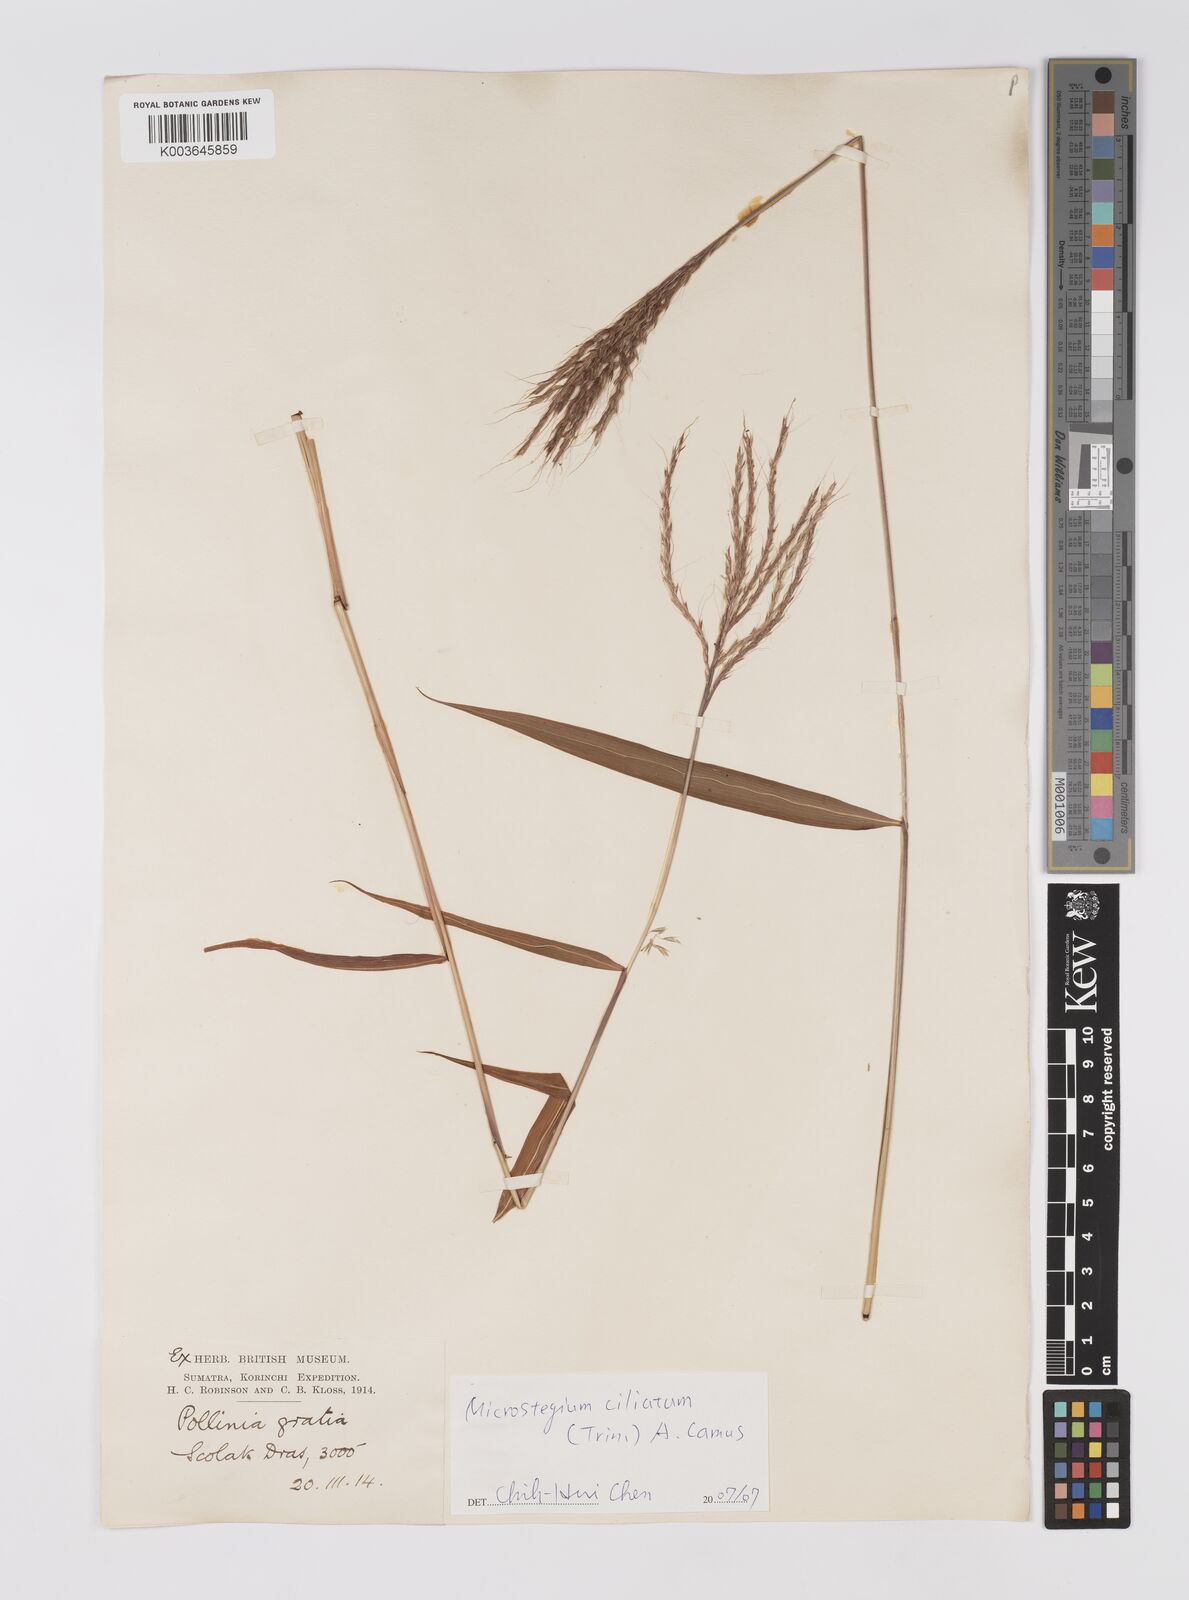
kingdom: Plantae
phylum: Tracheophyta
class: Liliopsida
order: Poales
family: Poaceae
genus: Microstegium
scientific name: Microstegium fasciculatum
